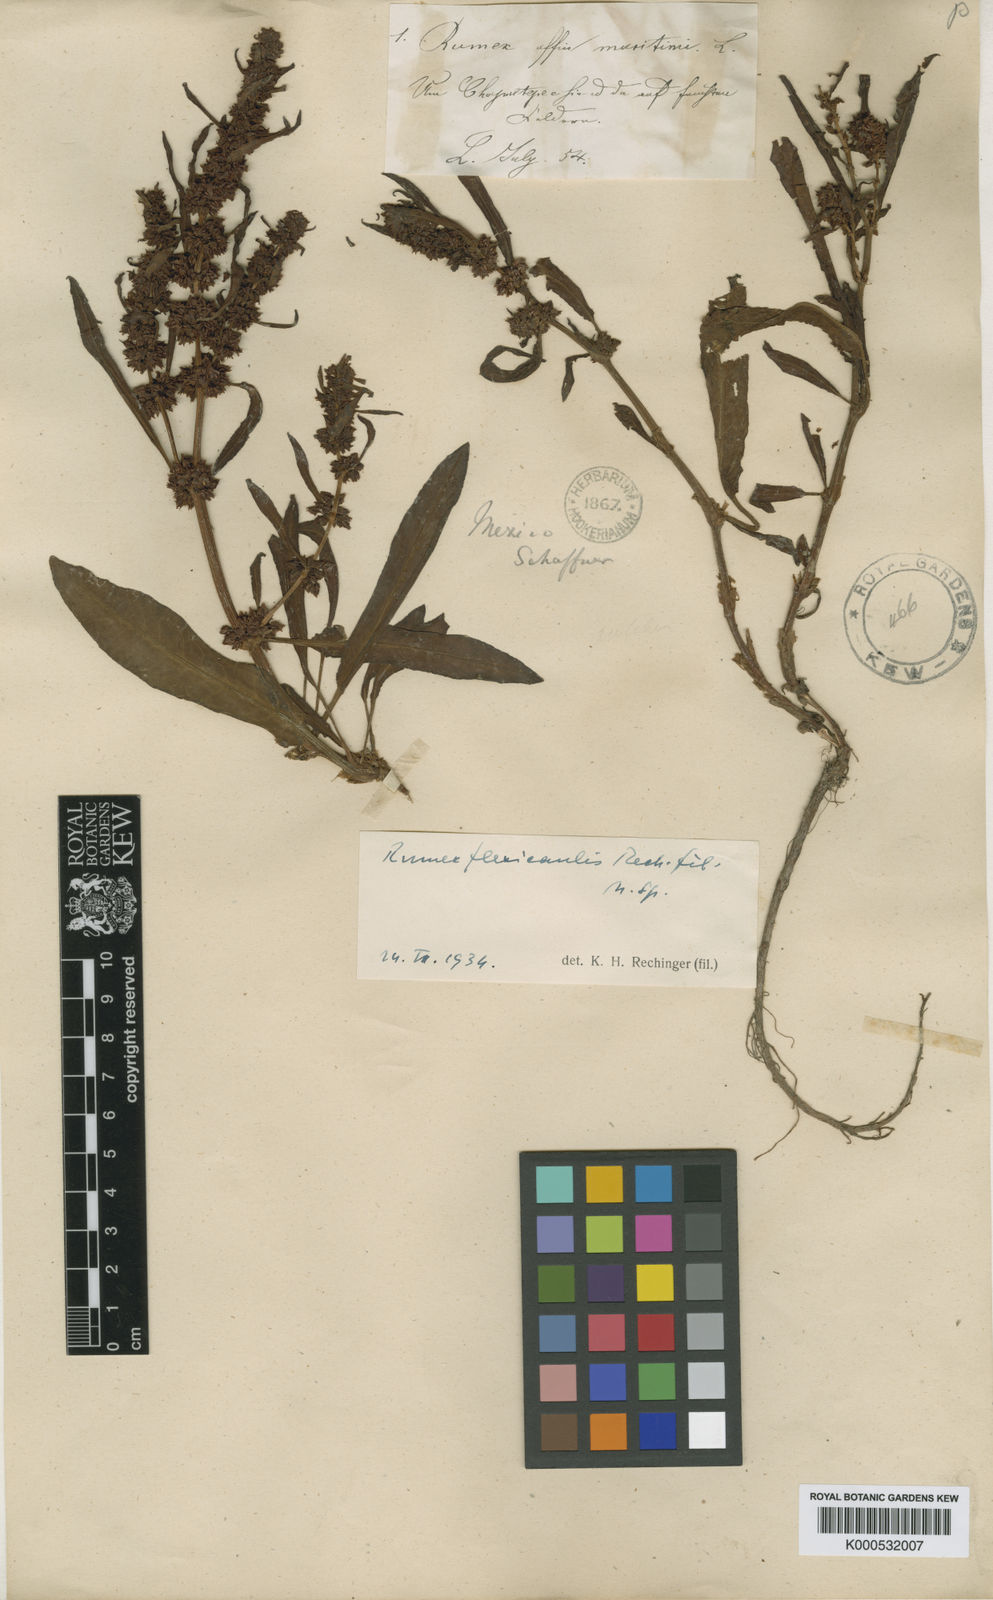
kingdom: Plantae
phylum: Tracheophyta
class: Magnoliopsida
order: Caryophyllales
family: Polygonaceae
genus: Rumex
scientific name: Rumex flexicaulis
